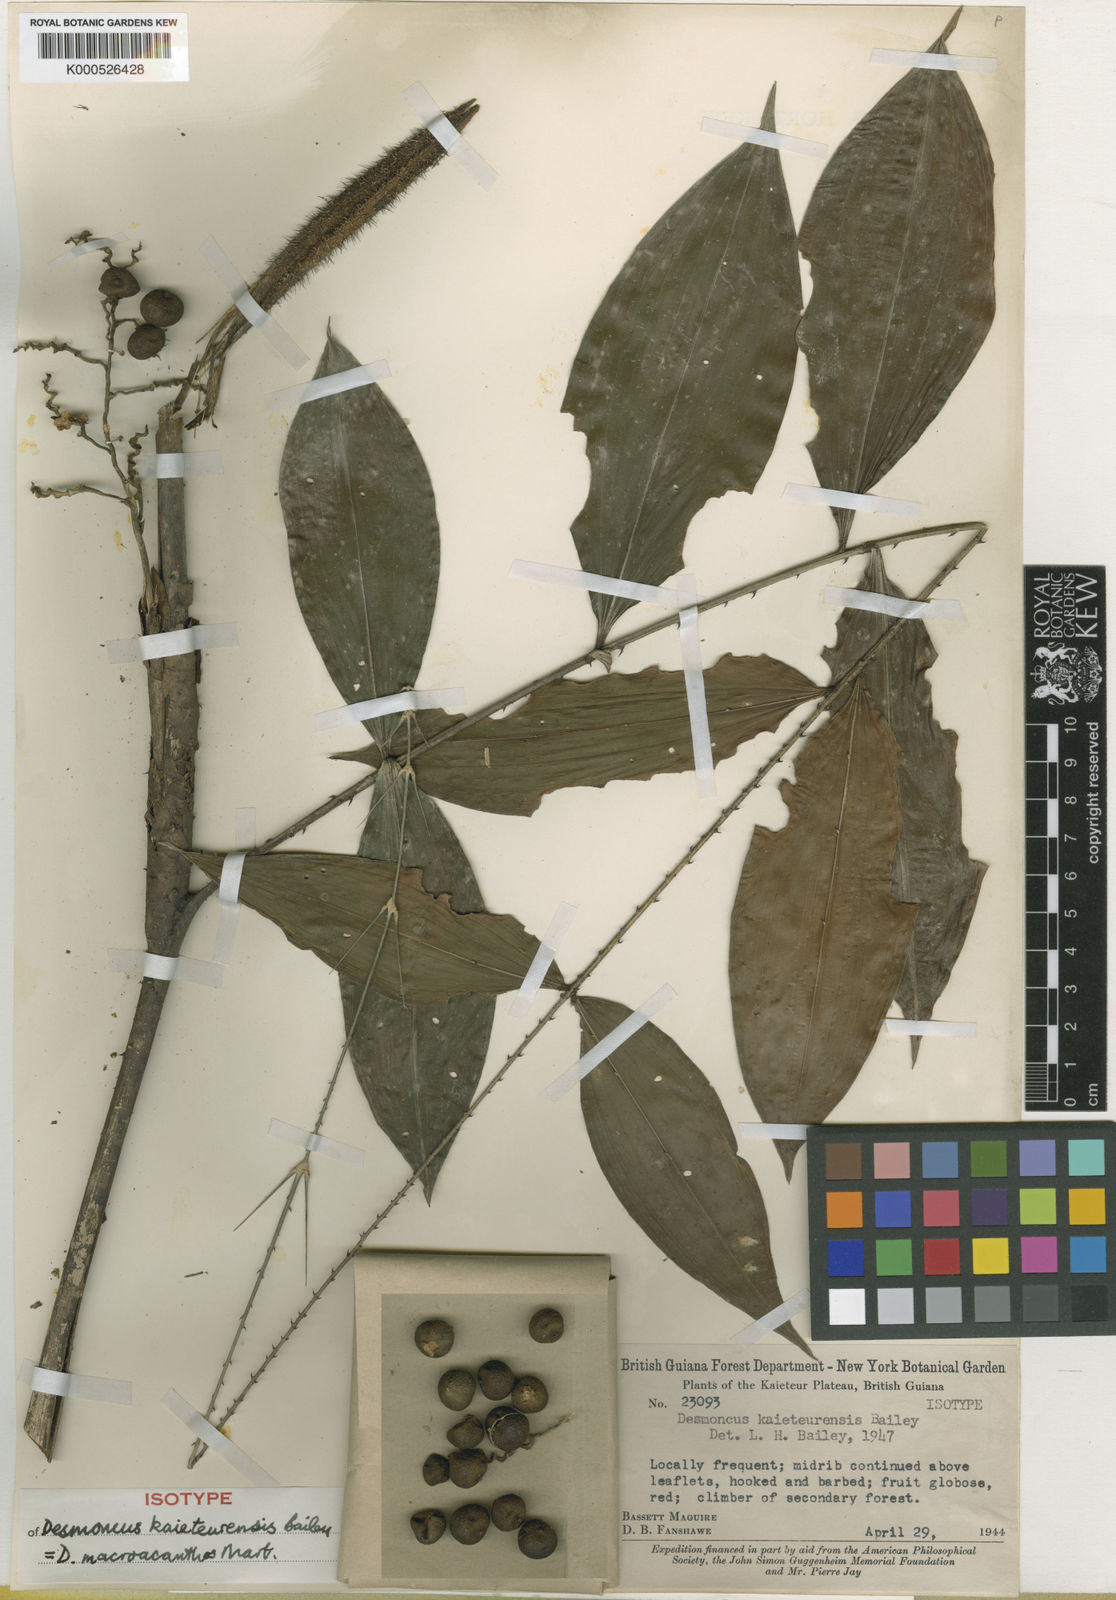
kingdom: Plantae
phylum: Tracheophyta
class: Liliopsida
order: Arecales
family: Arecaceae
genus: Desmoncus
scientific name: Desmoncus polyacanthos
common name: Suriname bramble palm
